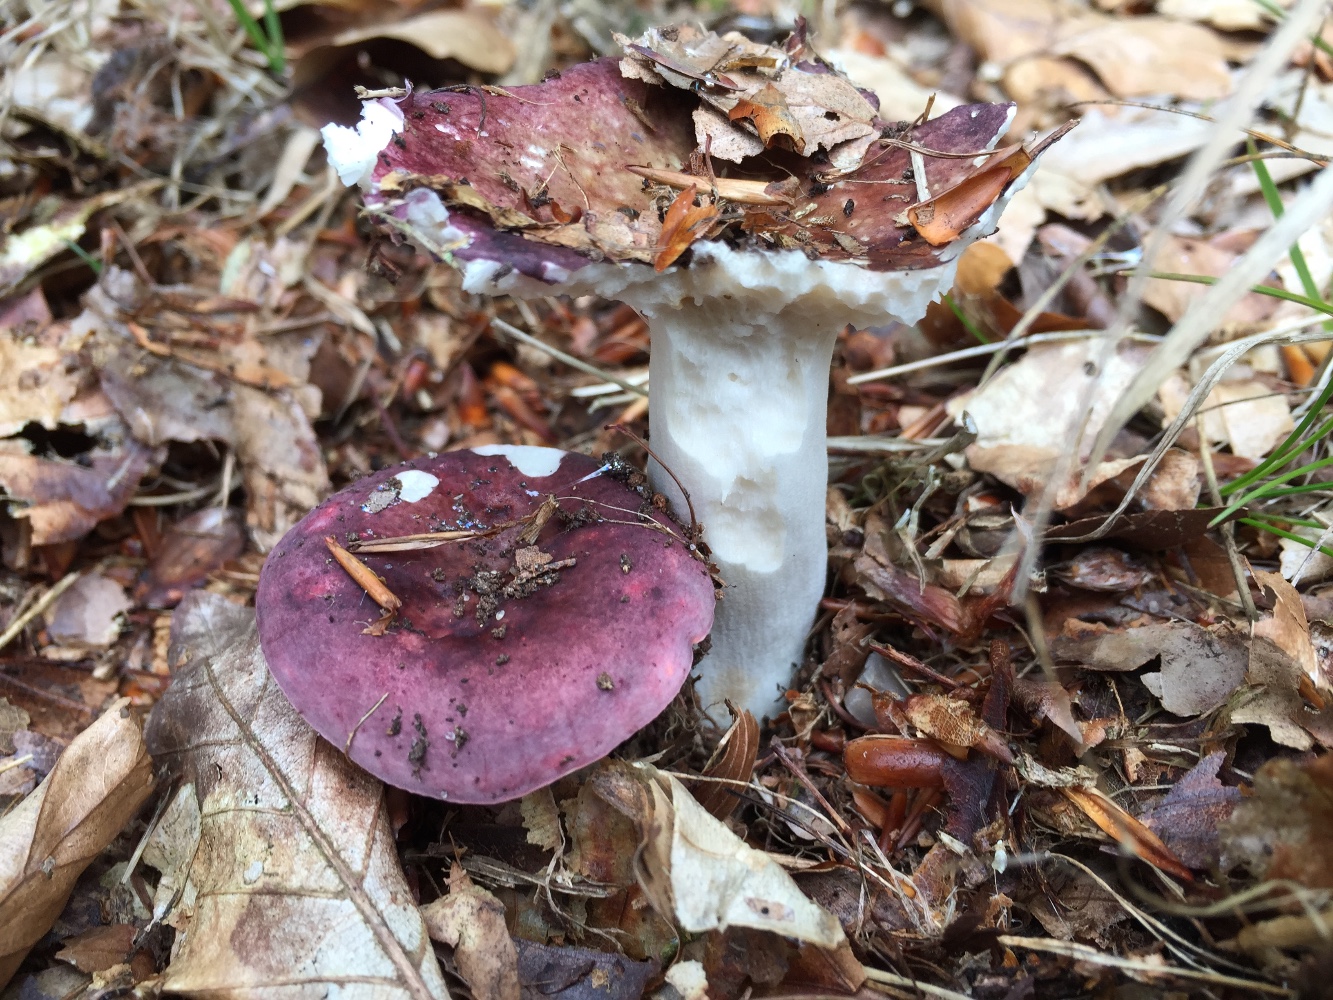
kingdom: Fungi
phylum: Basidiomycota
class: Agaricomycetes
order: Russulales
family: Russulaceae
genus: Russula
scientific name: Russula
